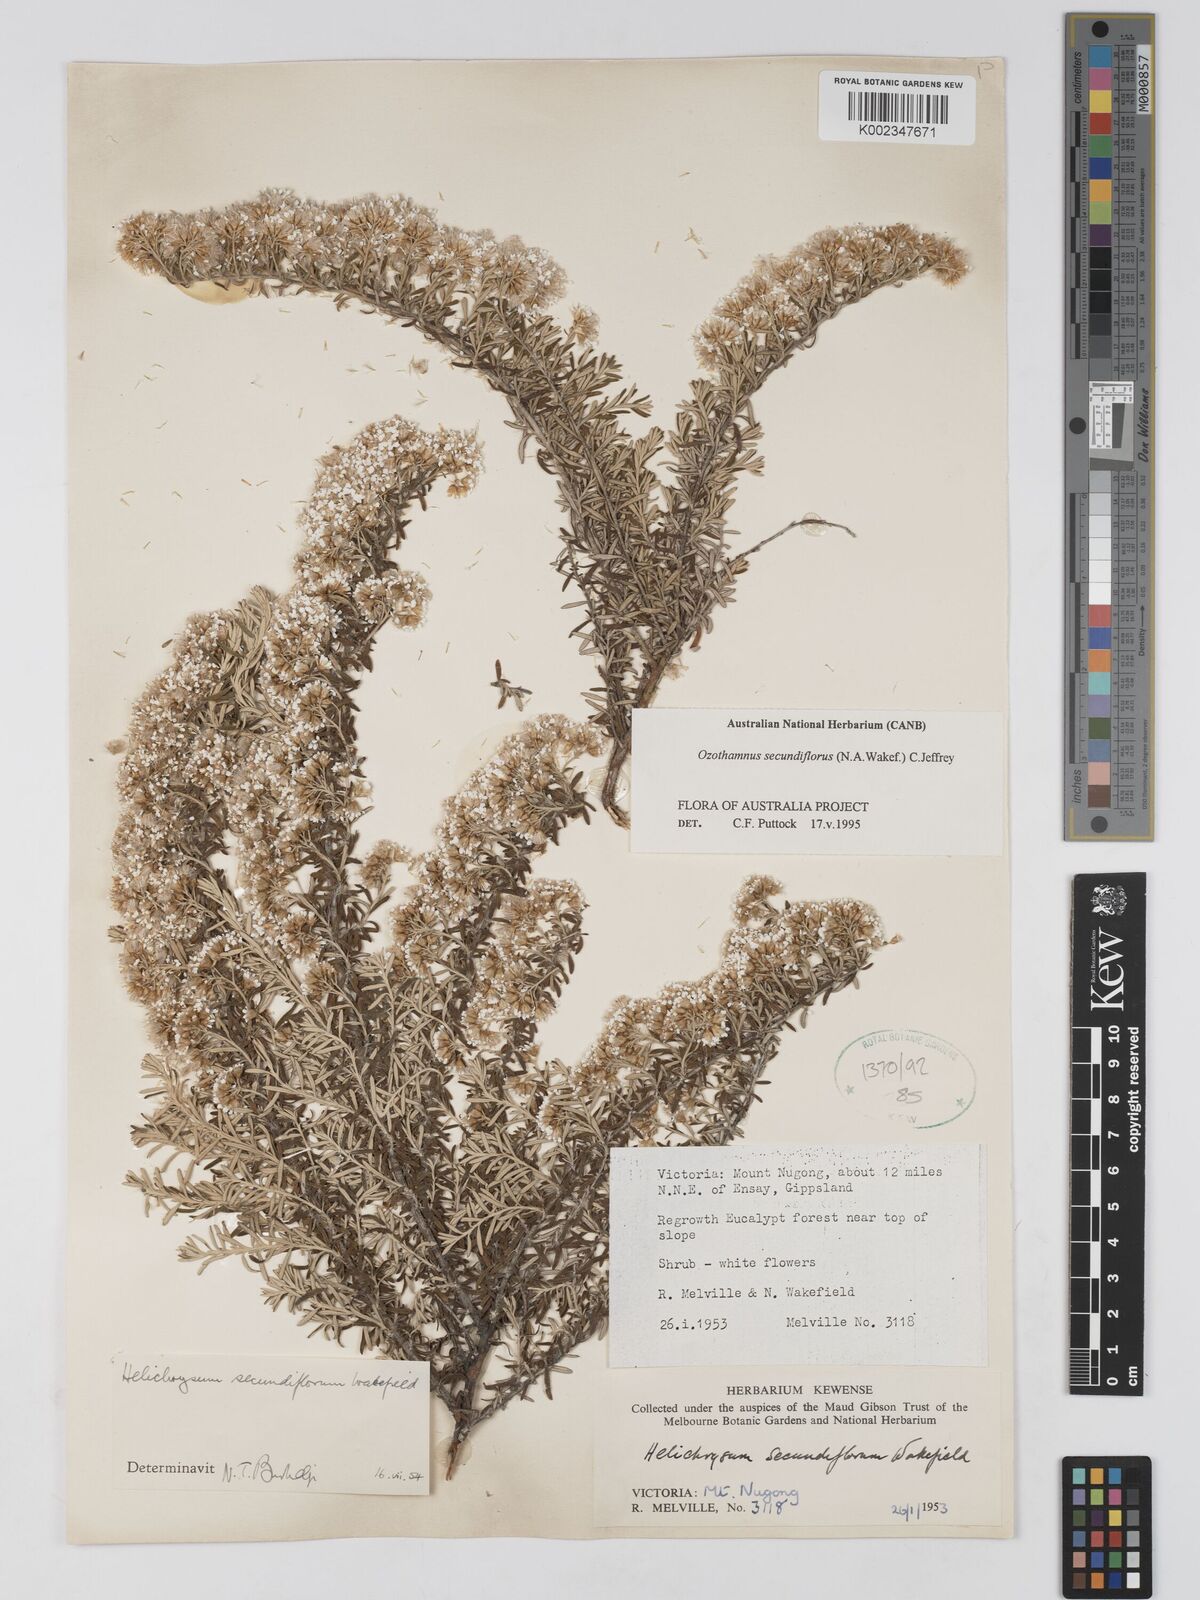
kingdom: Plantae
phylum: Tracheophyta
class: Magnoliopsida
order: Asterales
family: Asteraceae
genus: Ozothamnus
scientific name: Ozothamnus secundiflorus
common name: Cascade everlasting
